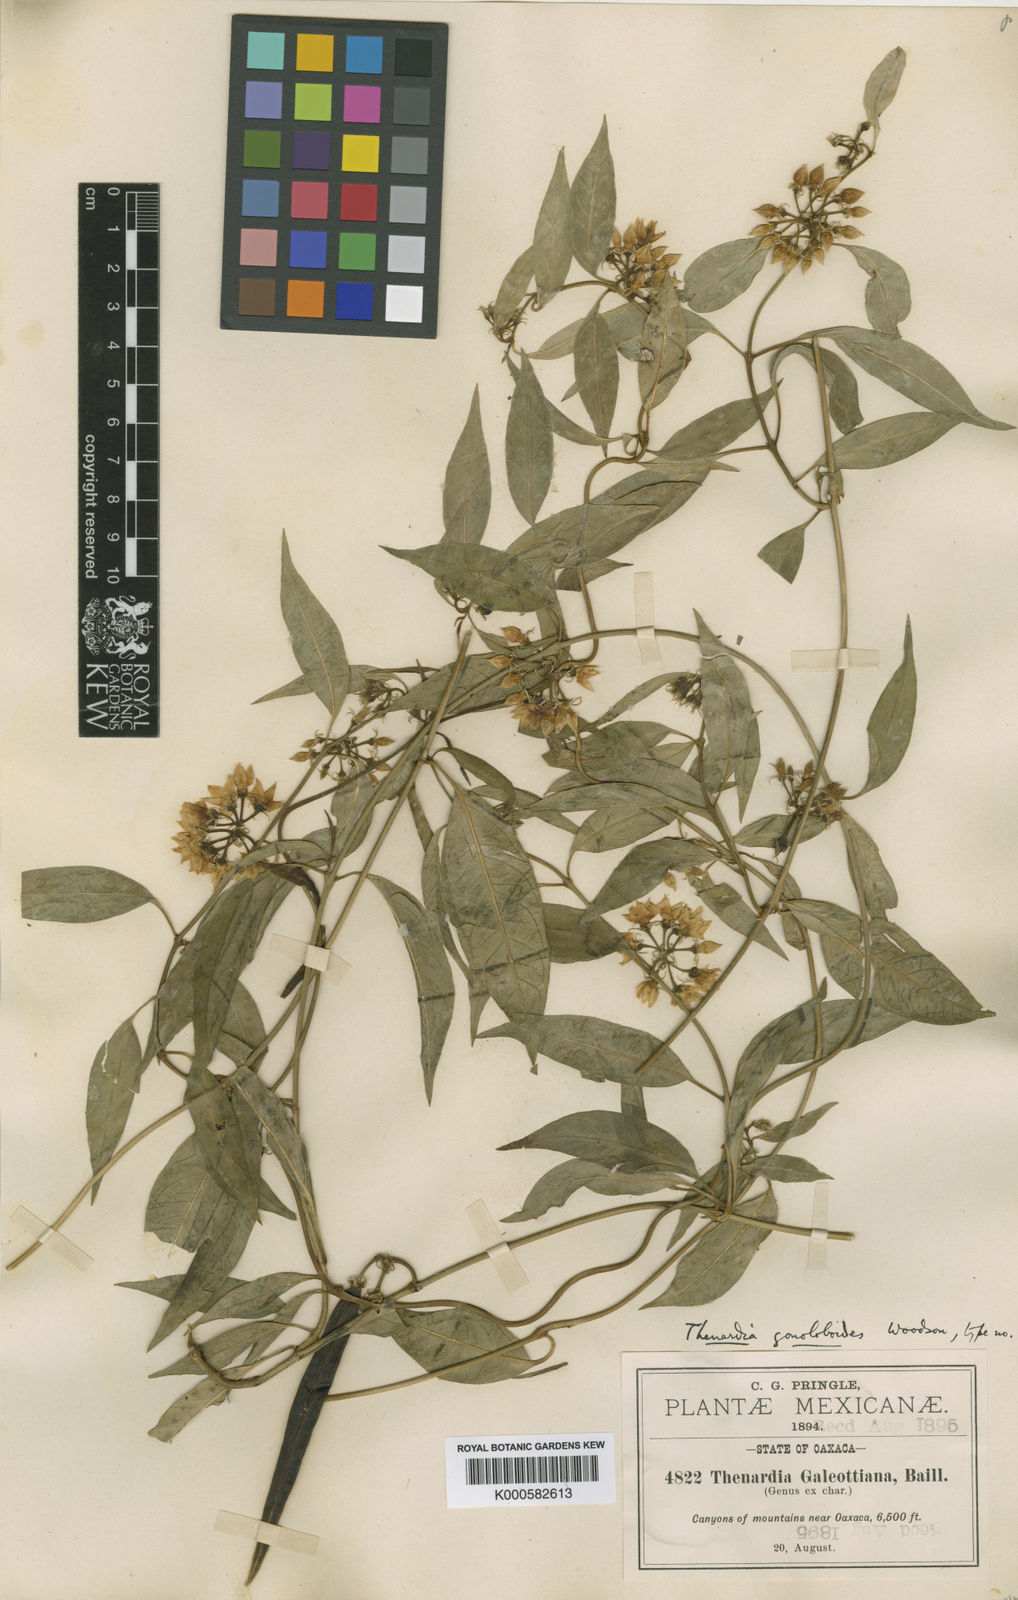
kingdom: Plantae
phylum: Tracheophyta
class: Magnoliopsida
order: Gentianales
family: Apocynaceae
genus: Thenardia
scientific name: Thenardia galeottiana
